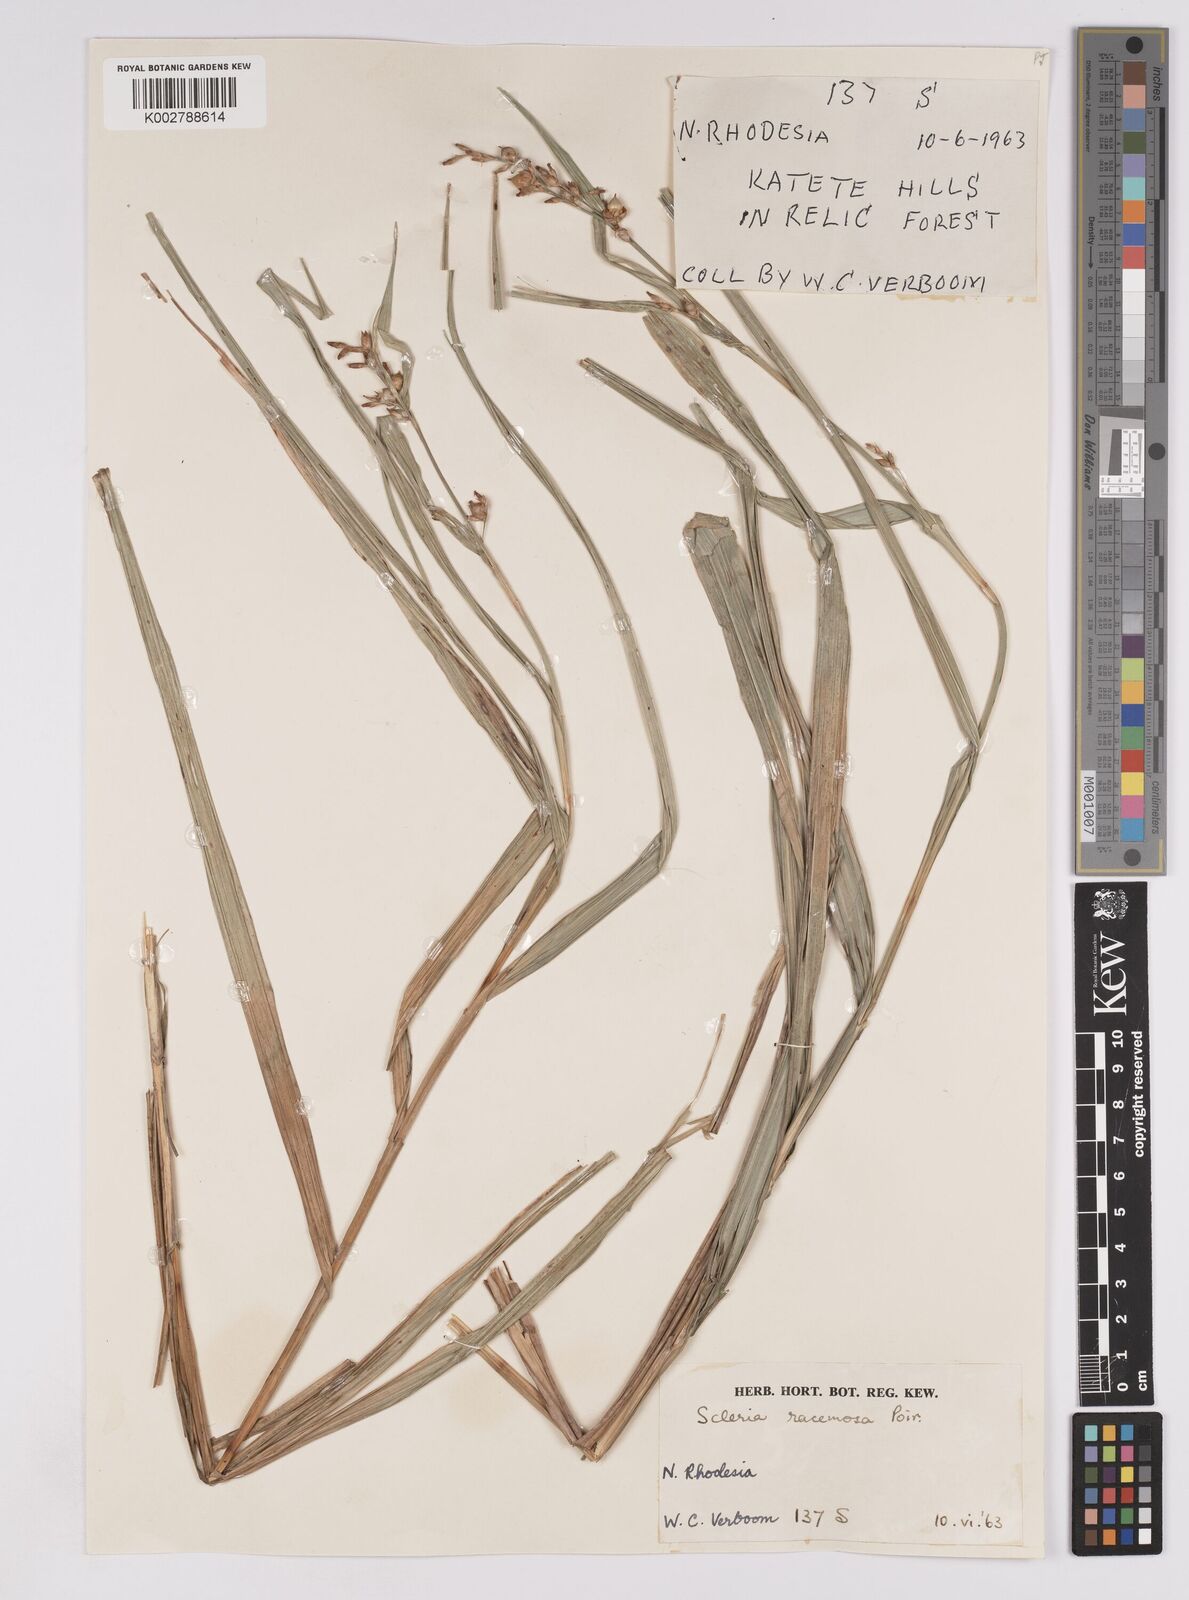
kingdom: Plantae
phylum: Tracheophyta
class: Liliopsida
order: Poales
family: Cyperaceae
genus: Scleria
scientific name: Scleria racemosa
